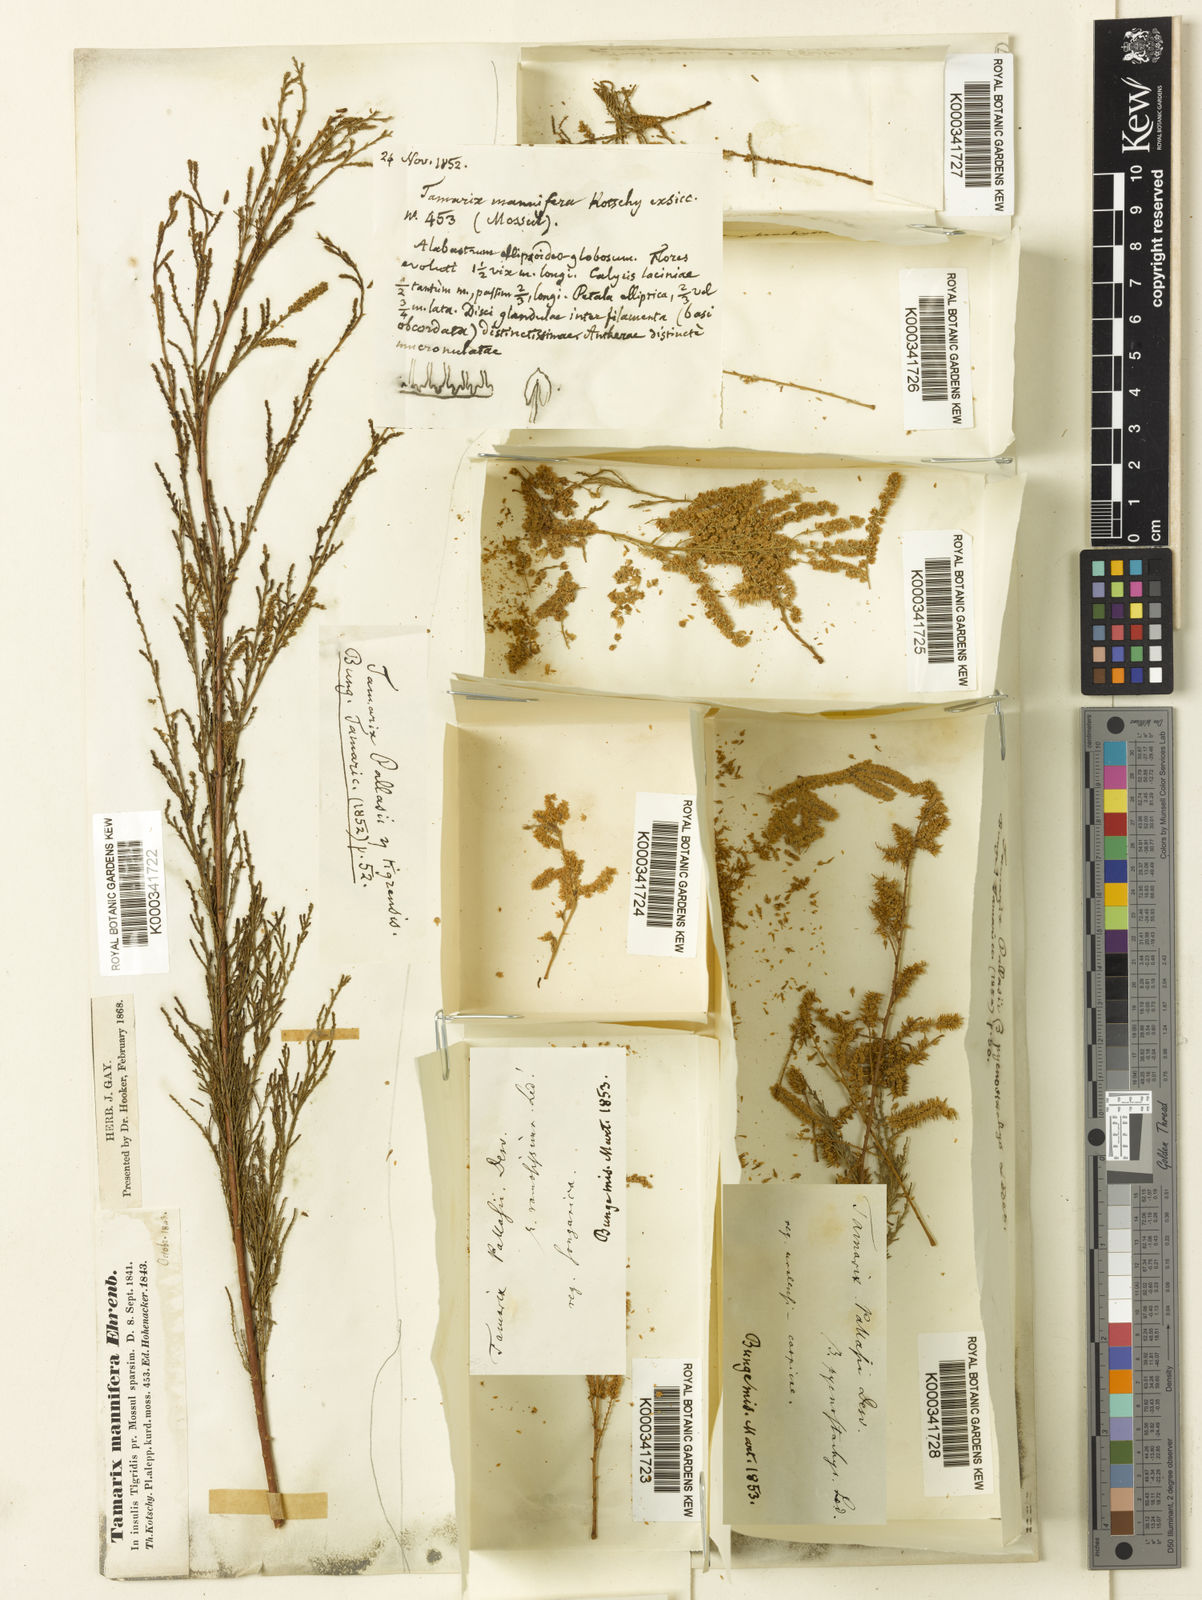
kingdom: Plantae
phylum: Tracheophyta
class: Magnoliopsida
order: Caryophyllales
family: Tamaricaceae
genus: Tamarix
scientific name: Tamarix ramosissima
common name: Pink tamarisk
